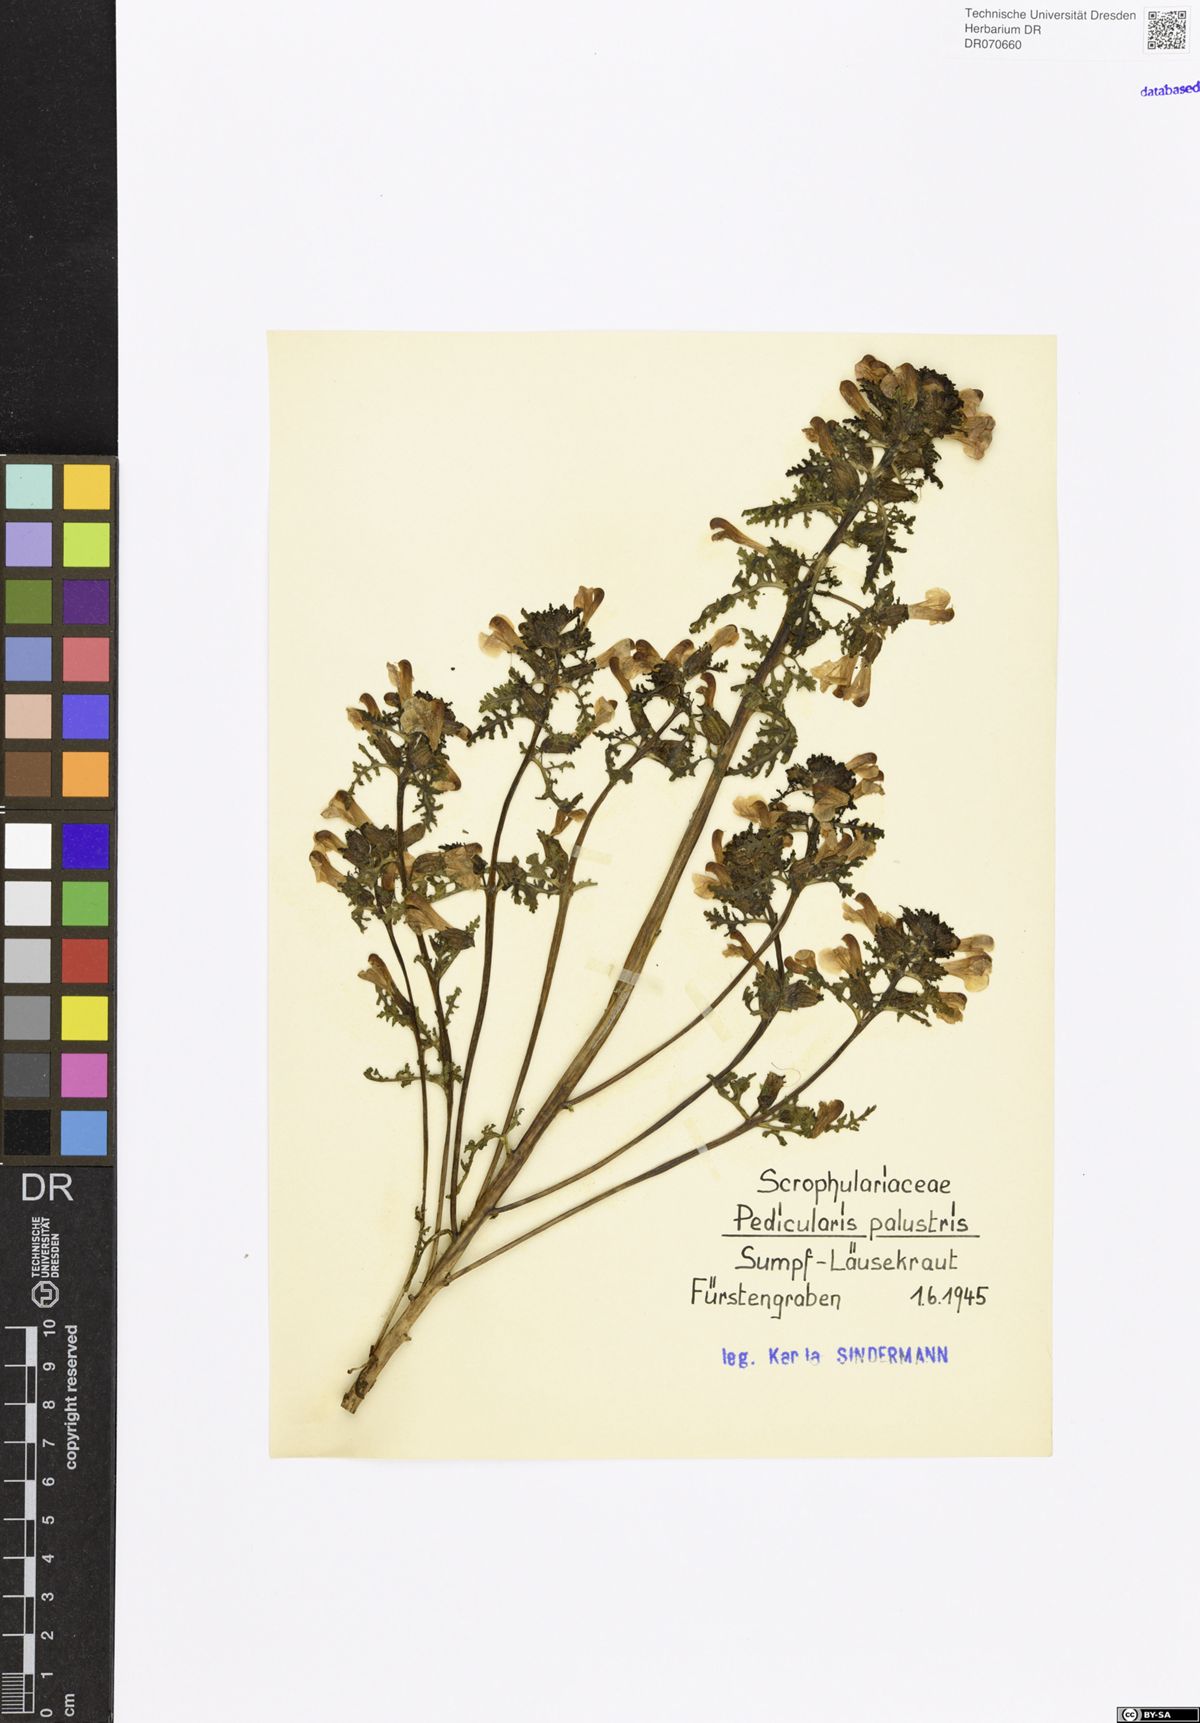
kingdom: Plantae
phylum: Tracheophyta
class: Magnoliopsida
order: Lamiales
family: Orobanchaceae
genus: Pedicularis
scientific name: Pedicularis palustris
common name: Marsh lousewort
